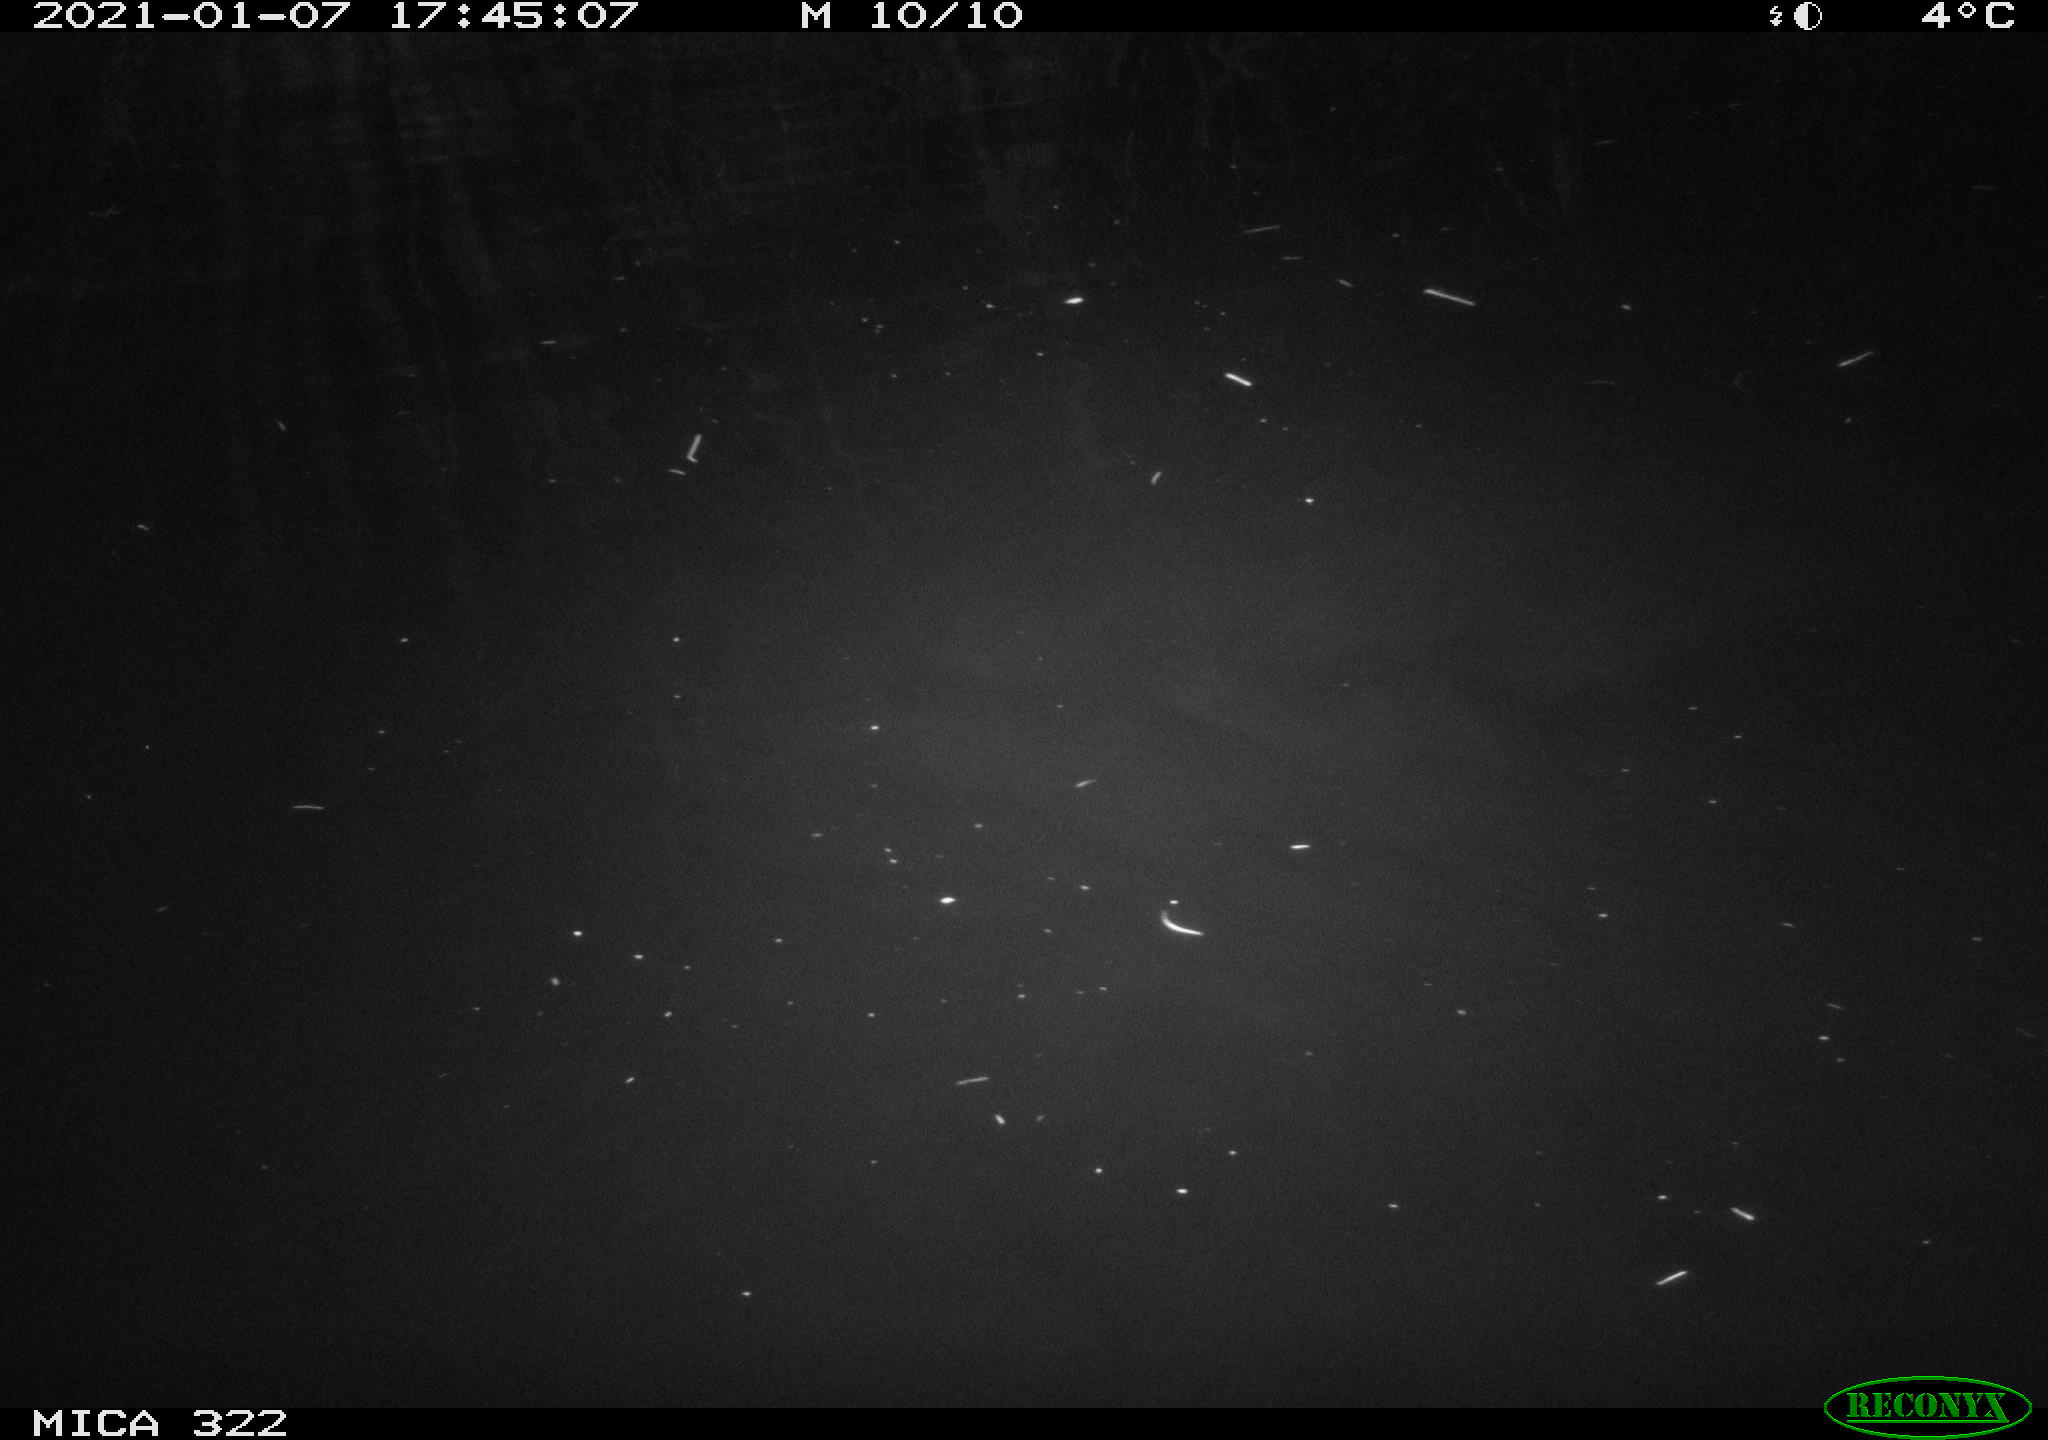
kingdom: Animalia
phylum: Chordata
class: Aves
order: Gruiformes
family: Rallidae
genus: Fulica
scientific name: Fulica atra
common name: Eurasian coot
